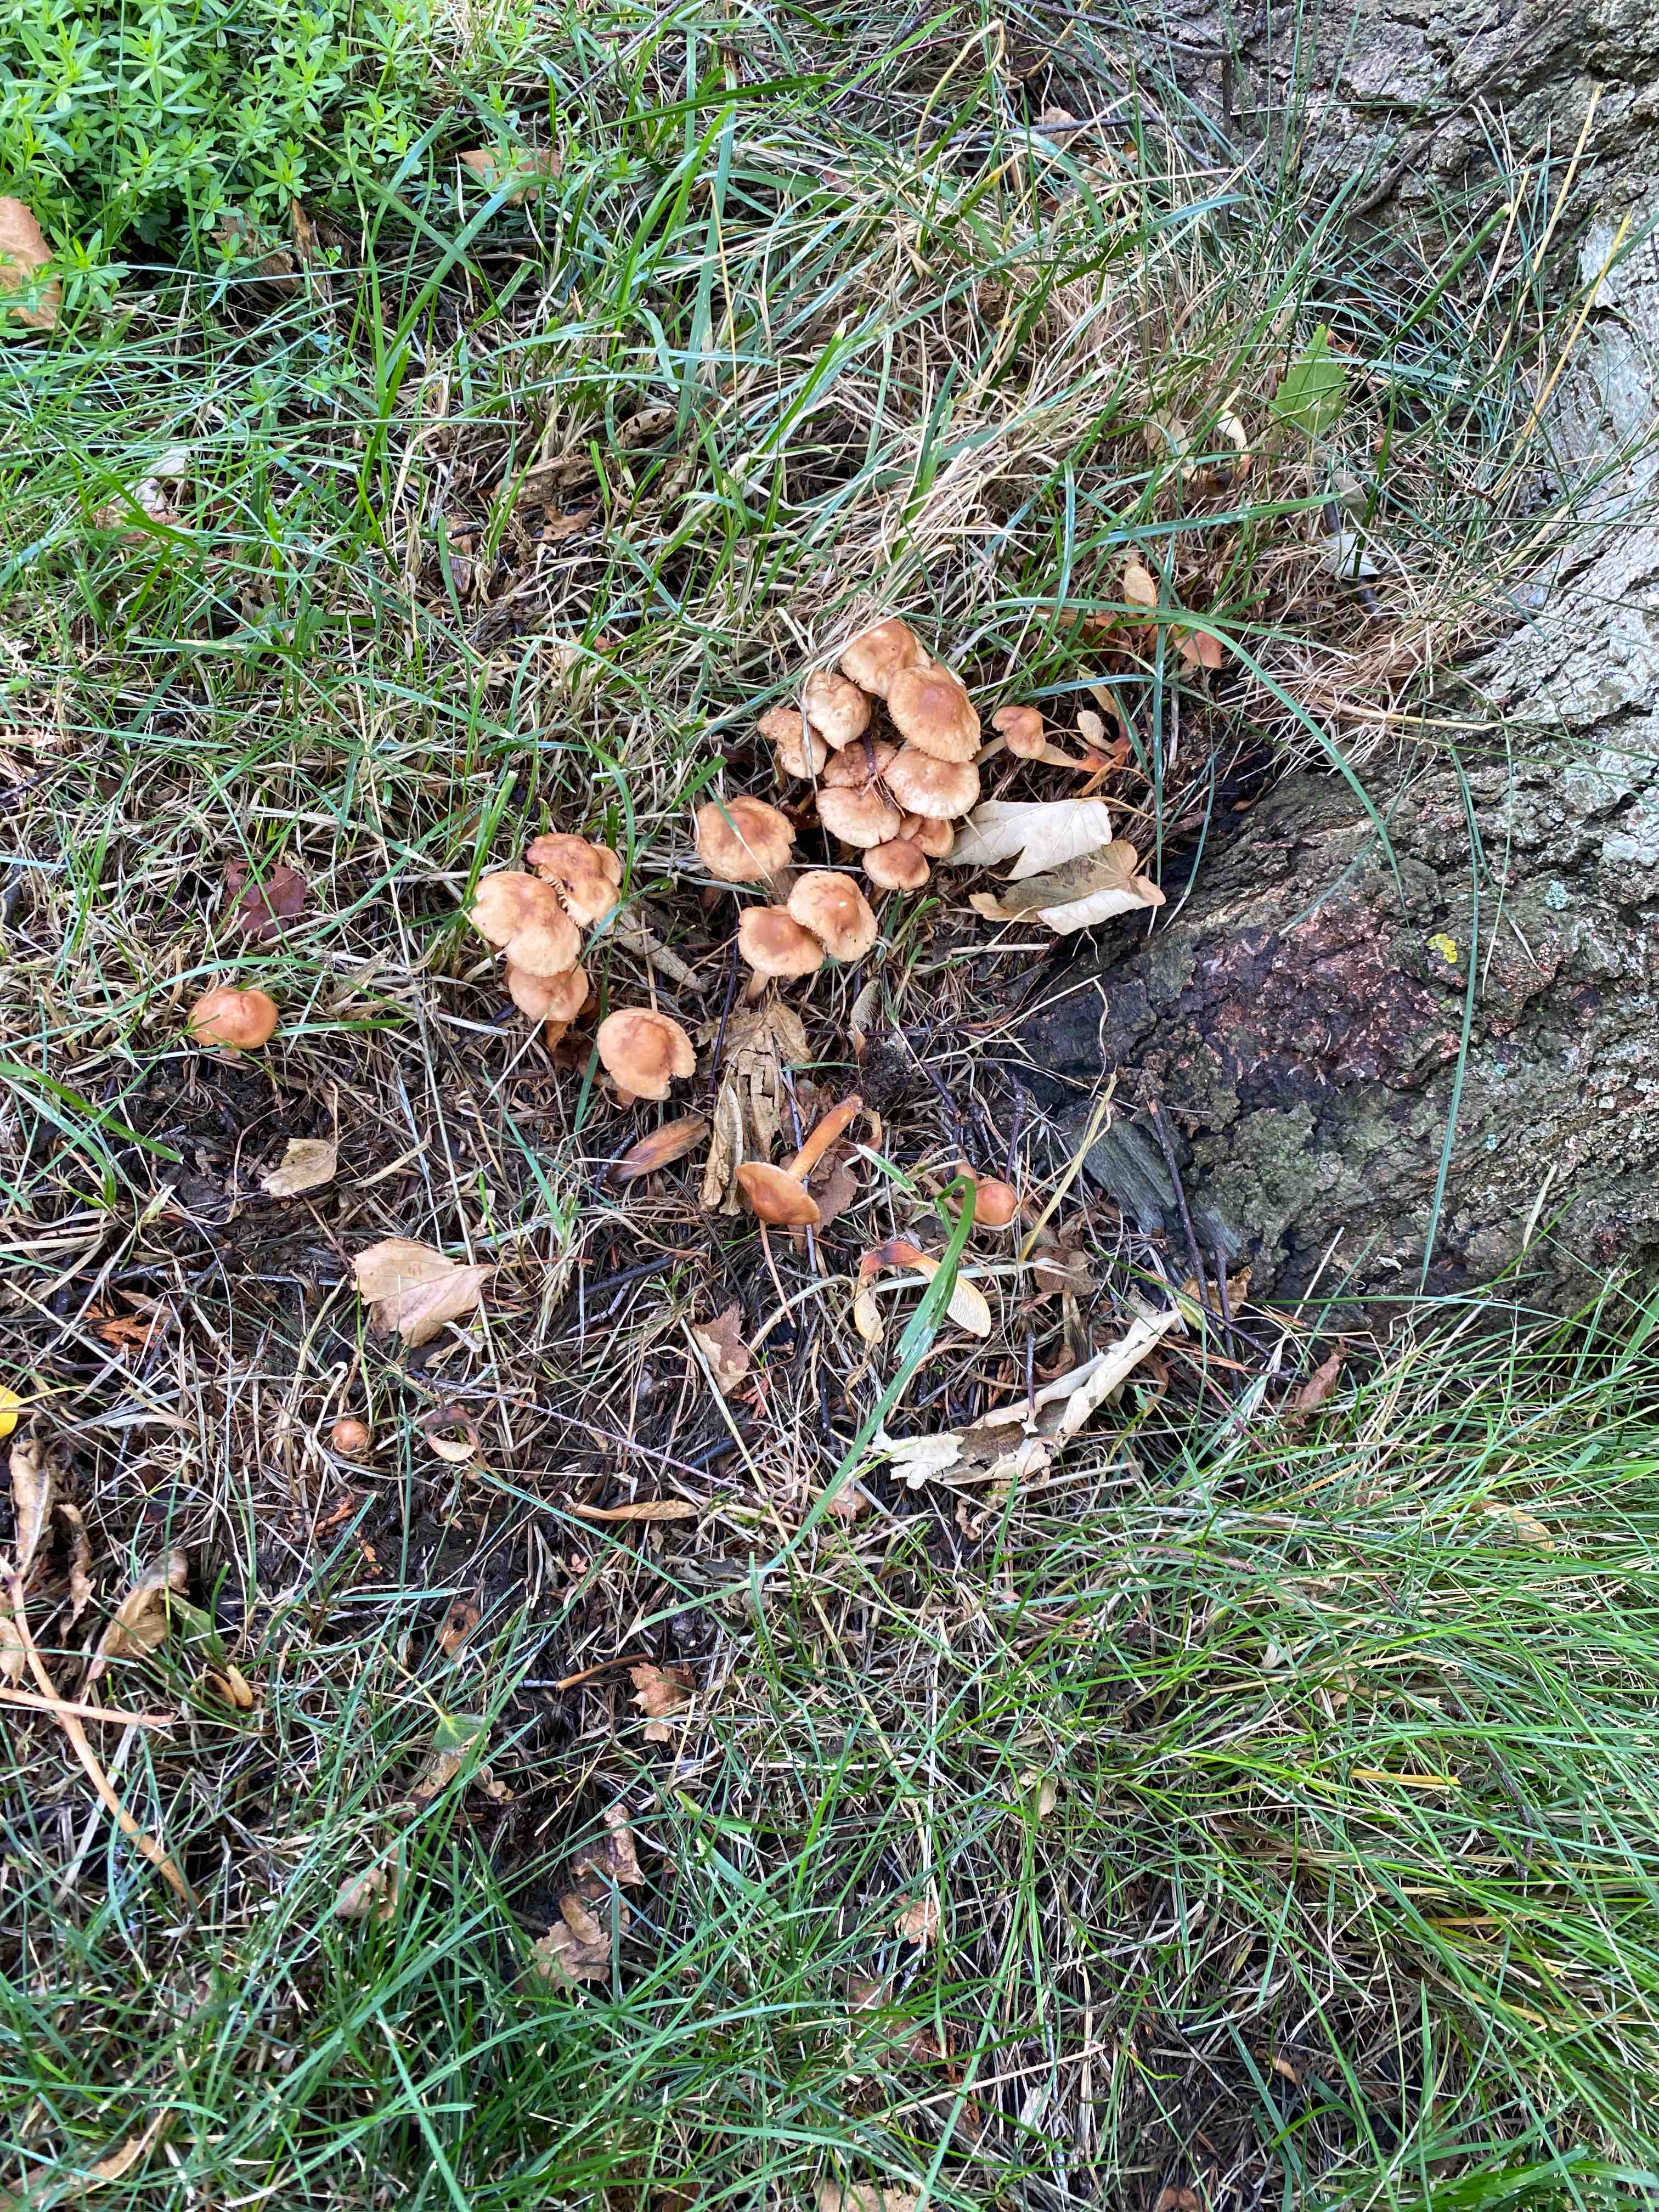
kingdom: Fungi
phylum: Basidiomycota
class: Agaricomycetes
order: Agaricales
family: Marasmiaceae
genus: Marasmius
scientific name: Marasmius oreades
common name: elledans-bruskhat
